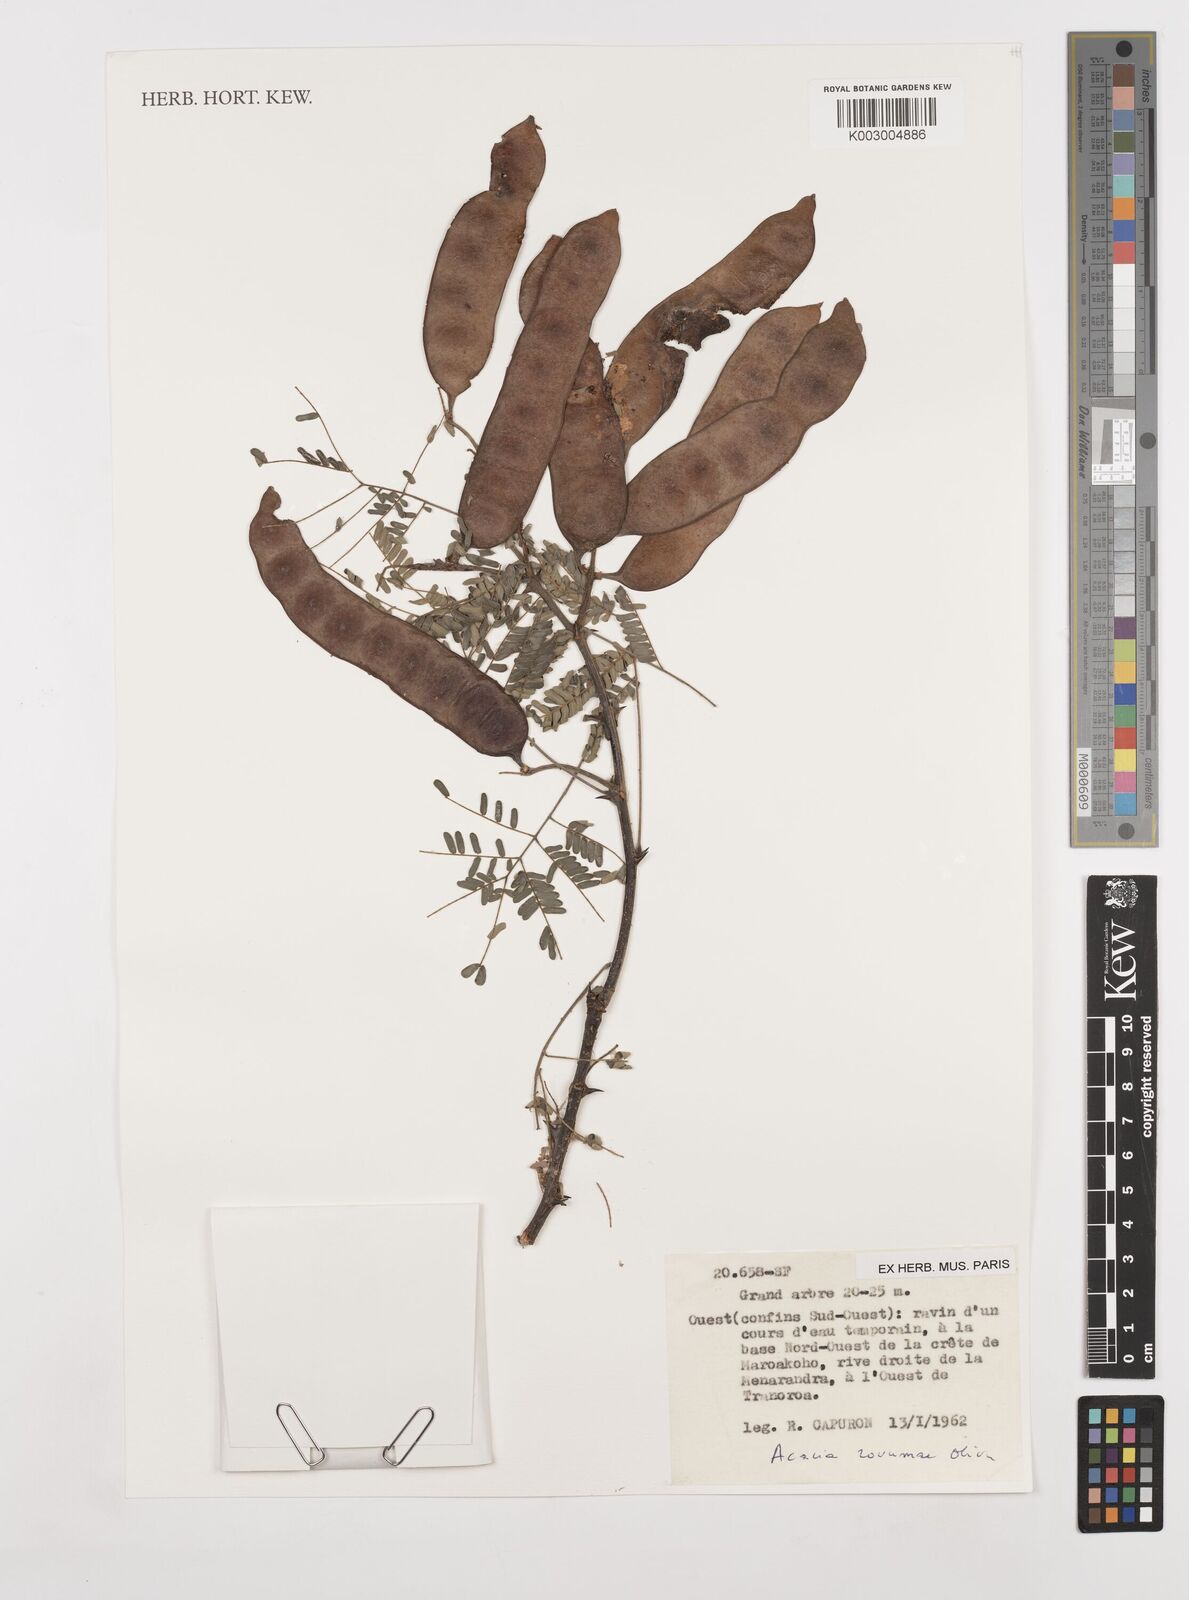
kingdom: Plantae
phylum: Tracheophyta
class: Magnoliopsida
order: Fabales
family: Fabaceae
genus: Senegalia
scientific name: Senegalia rovumae
